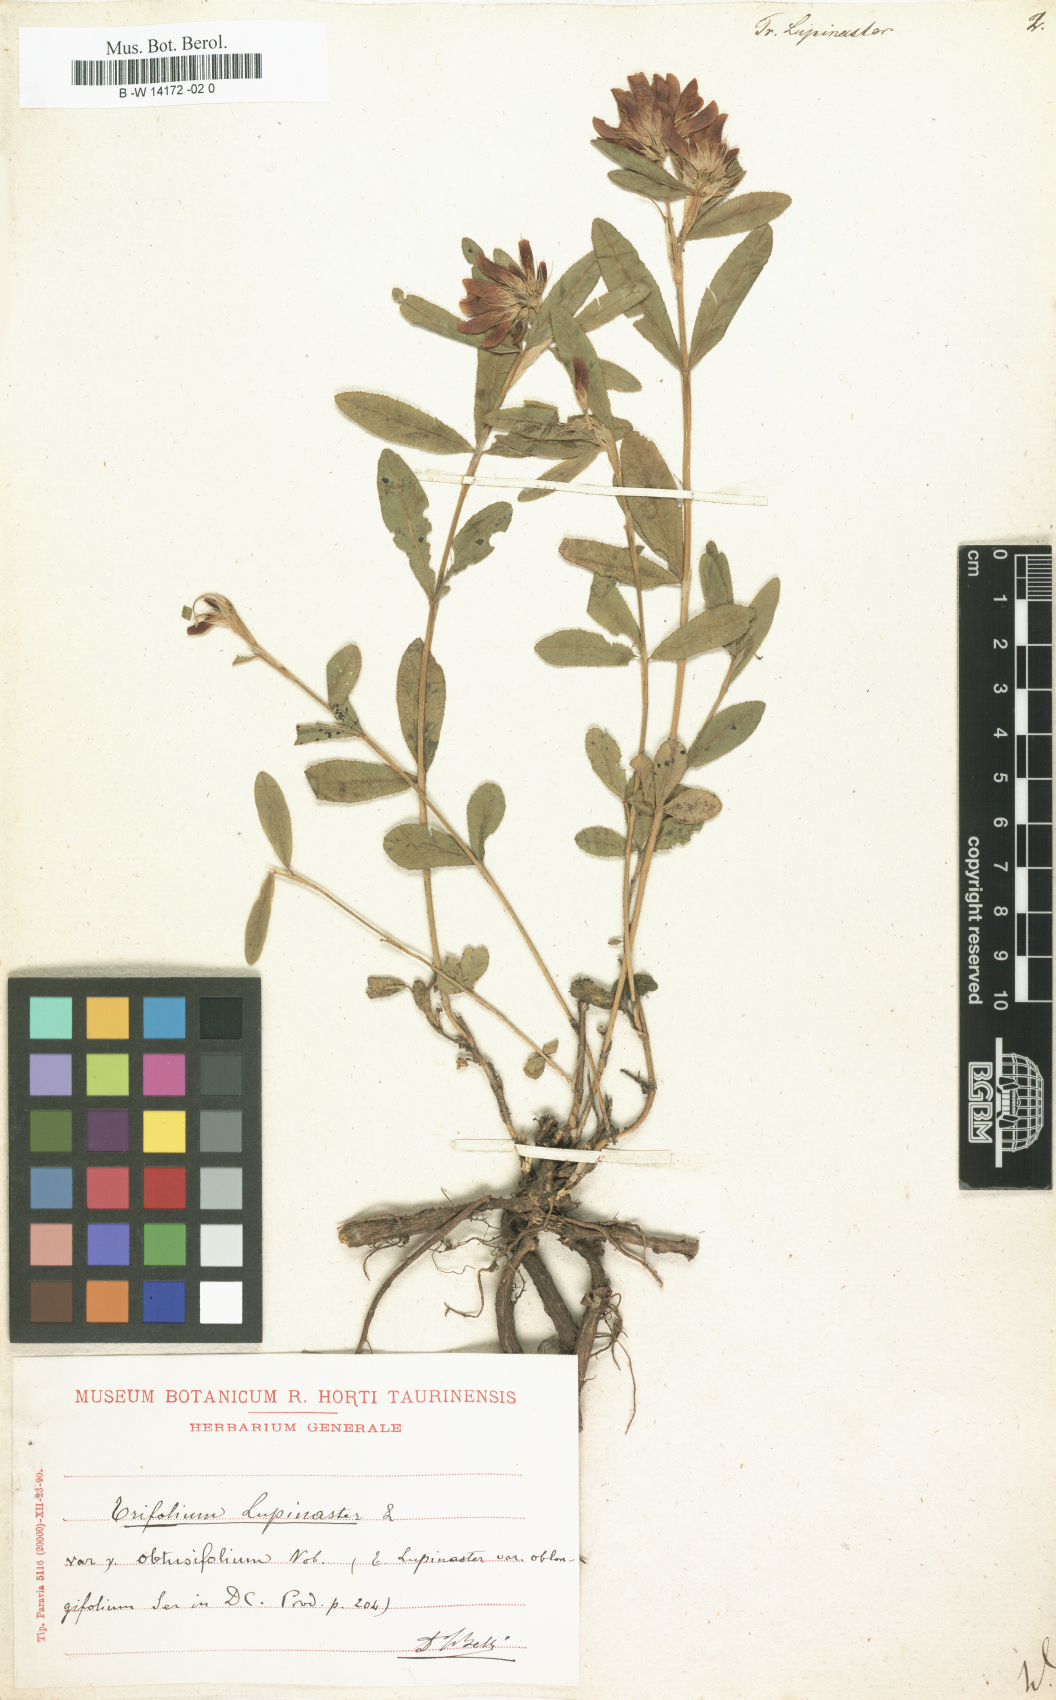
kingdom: Plantae
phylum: Tracheophyta
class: Magnoliopsida
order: Fabales
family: Fabaceae
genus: Trifolium
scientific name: Trifolium lupinaster
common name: Lupine clover
